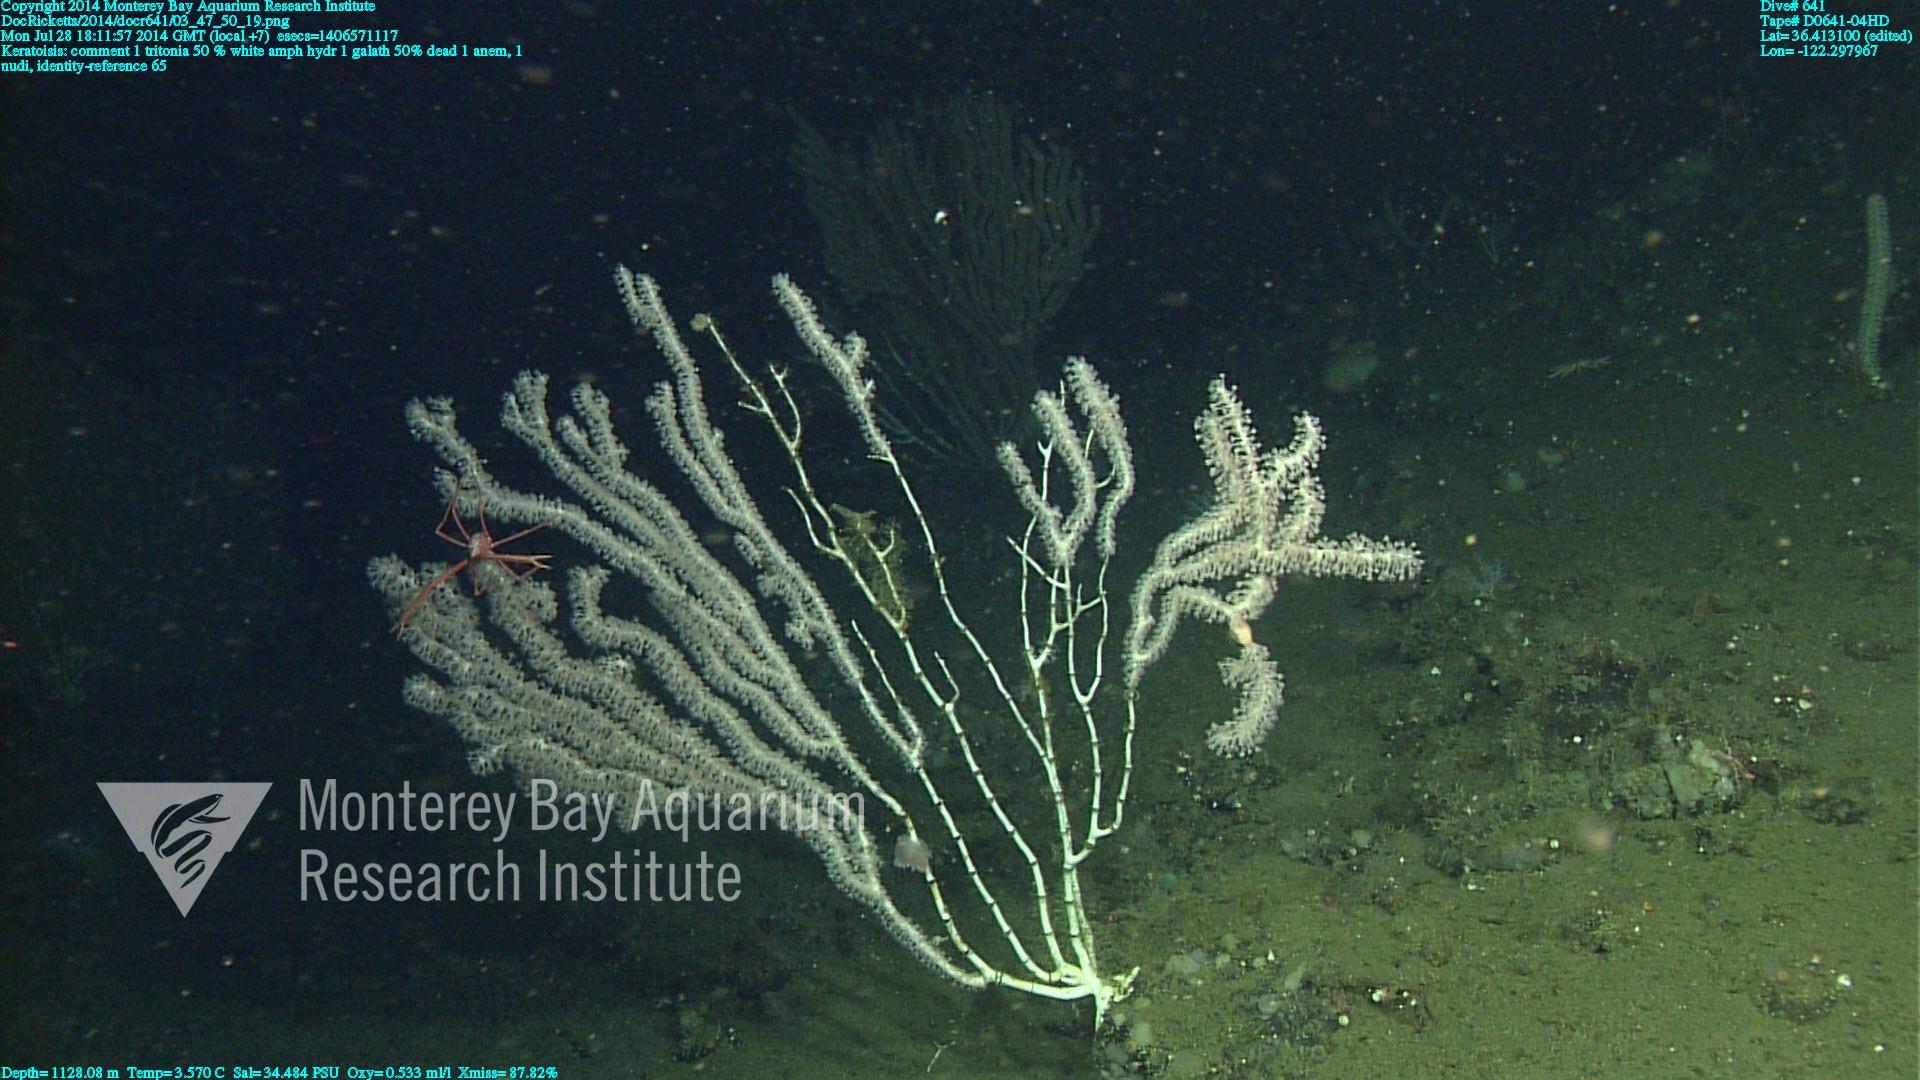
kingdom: Animalia
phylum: Cnidaria
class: Anthozoa
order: Scleralcyonacea
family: Keratoisididae
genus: Keratoisis
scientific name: Keratoisis
